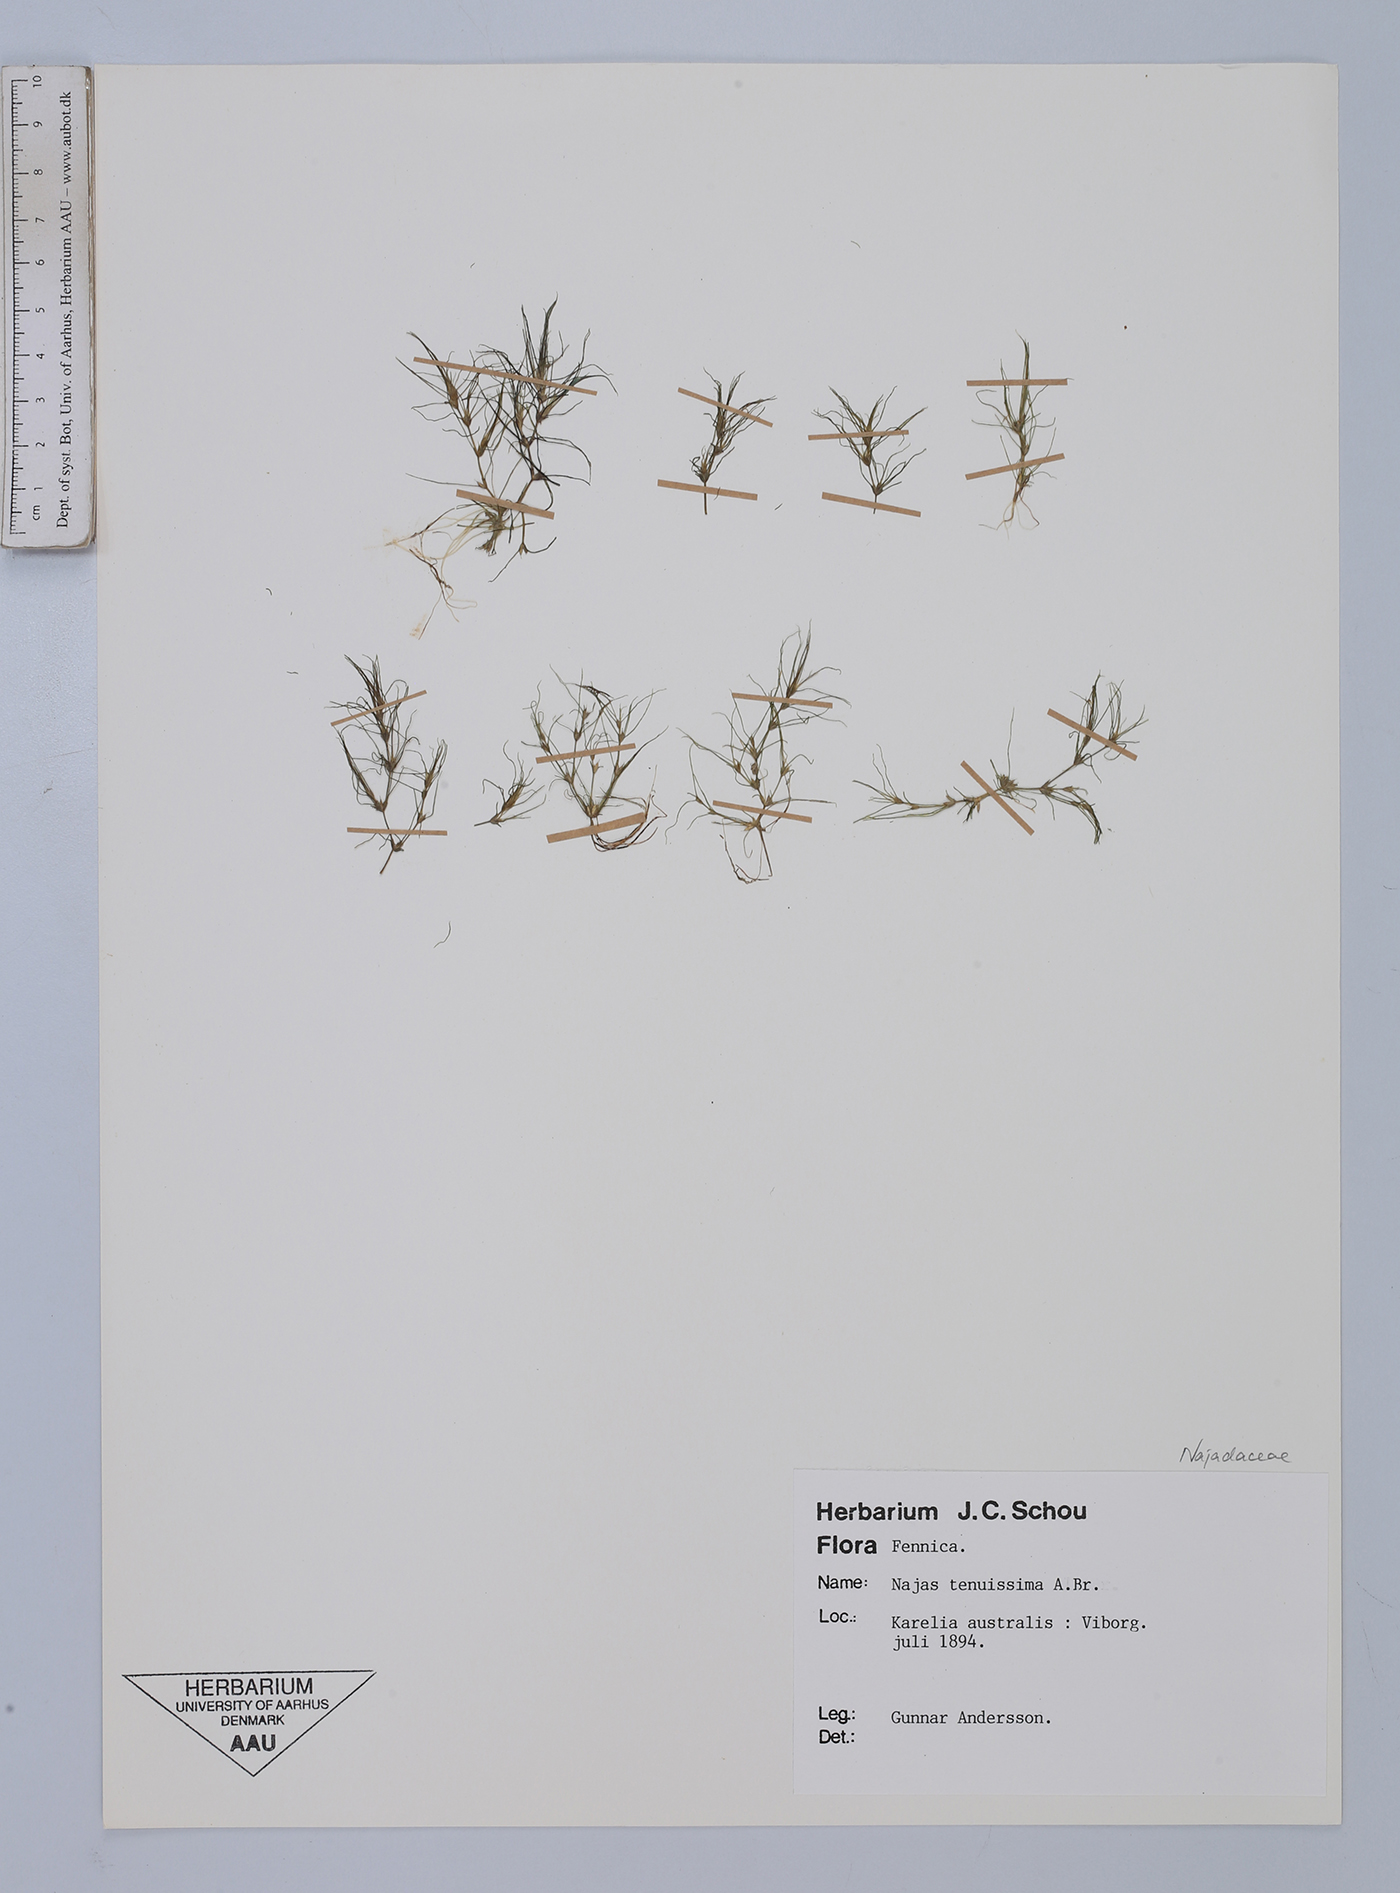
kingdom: Plantae
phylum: Tracheophyta
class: Liliopsida
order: Alismatales
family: Hydrocharitaceae
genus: Najas
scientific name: Najas tenuissima
